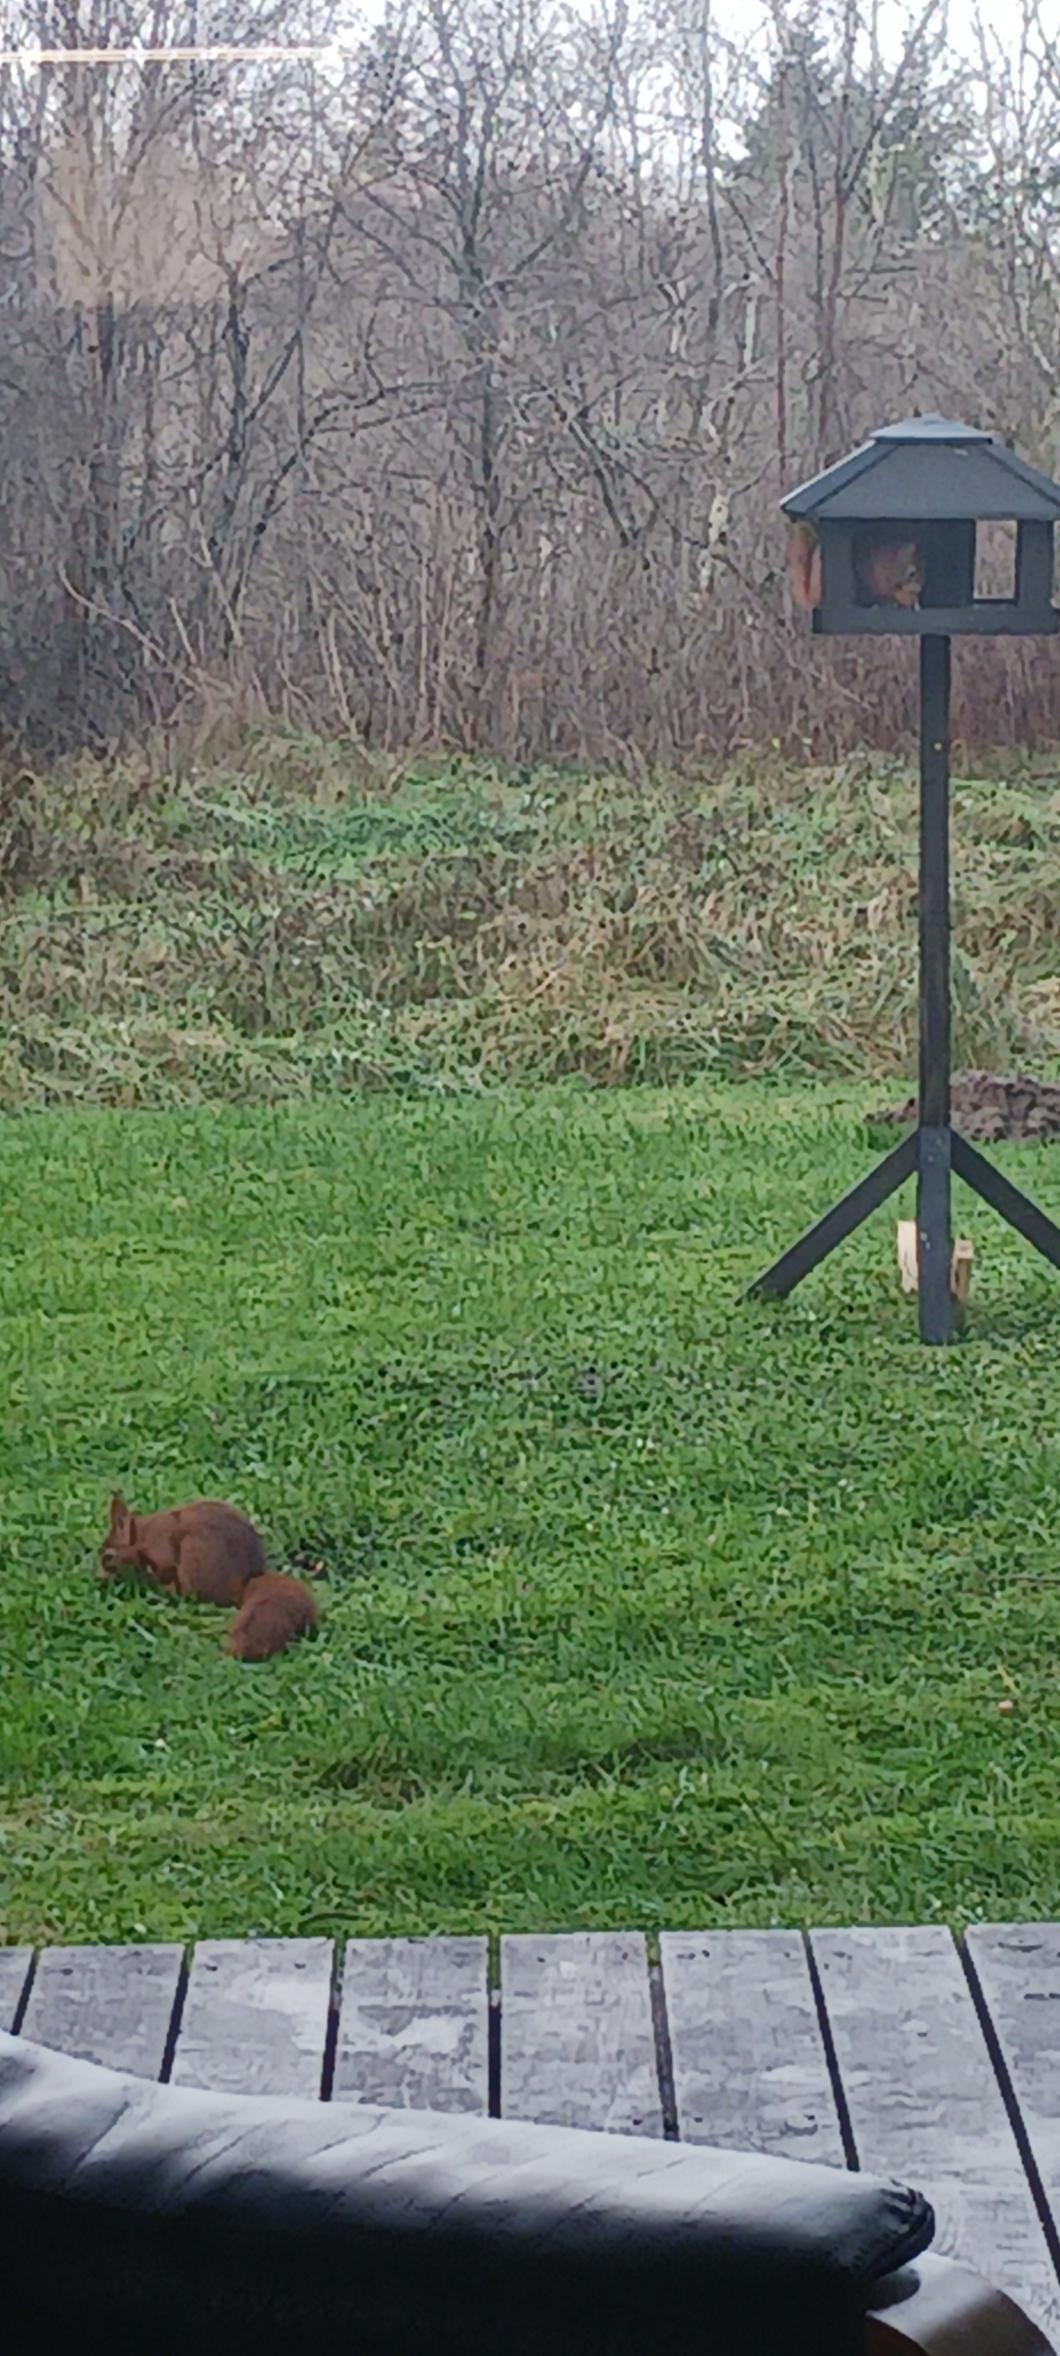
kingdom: Animalia
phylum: Chordata
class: Mammalia
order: Rodentia
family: Sciuridae
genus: Sciurus
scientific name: Sciurus vulgaris
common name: Egern
